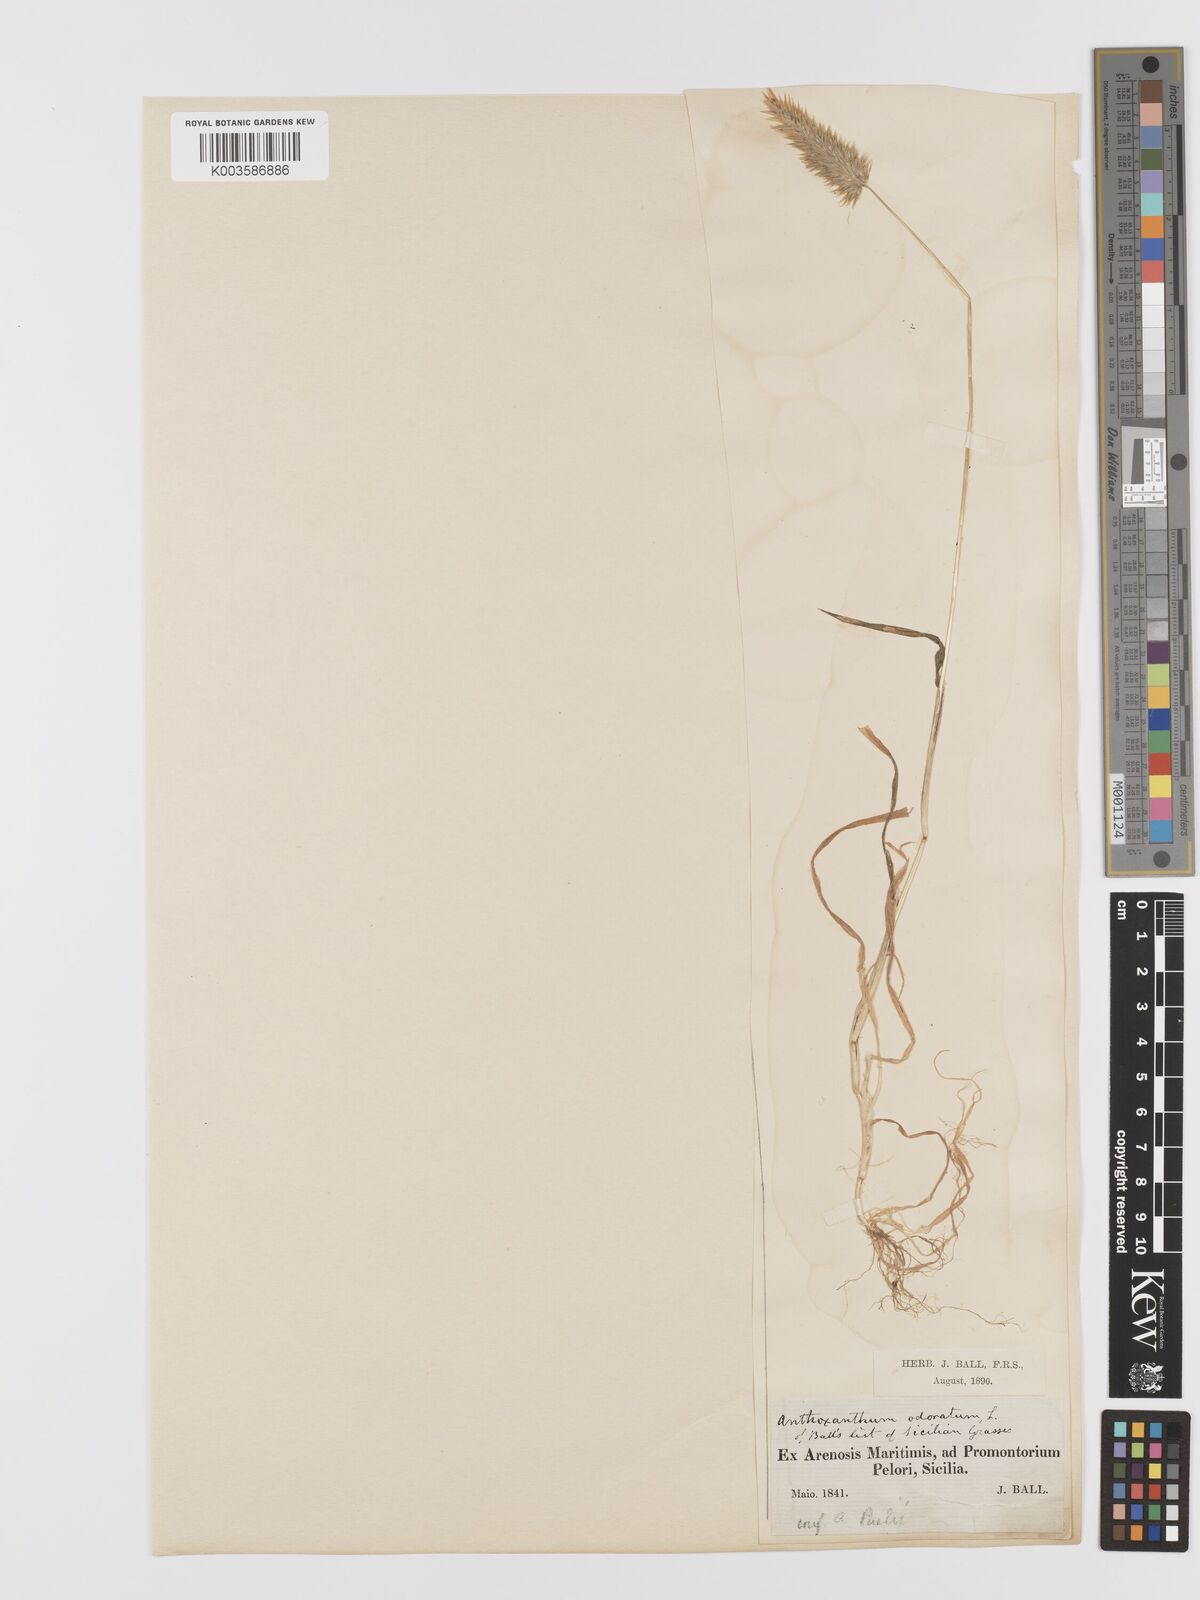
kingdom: Plantae
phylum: Tracheophyta
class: Liliopsida
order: Poales
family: Poaceae
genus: Anthoxanthum
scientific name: Anthoxanthum ovatum
